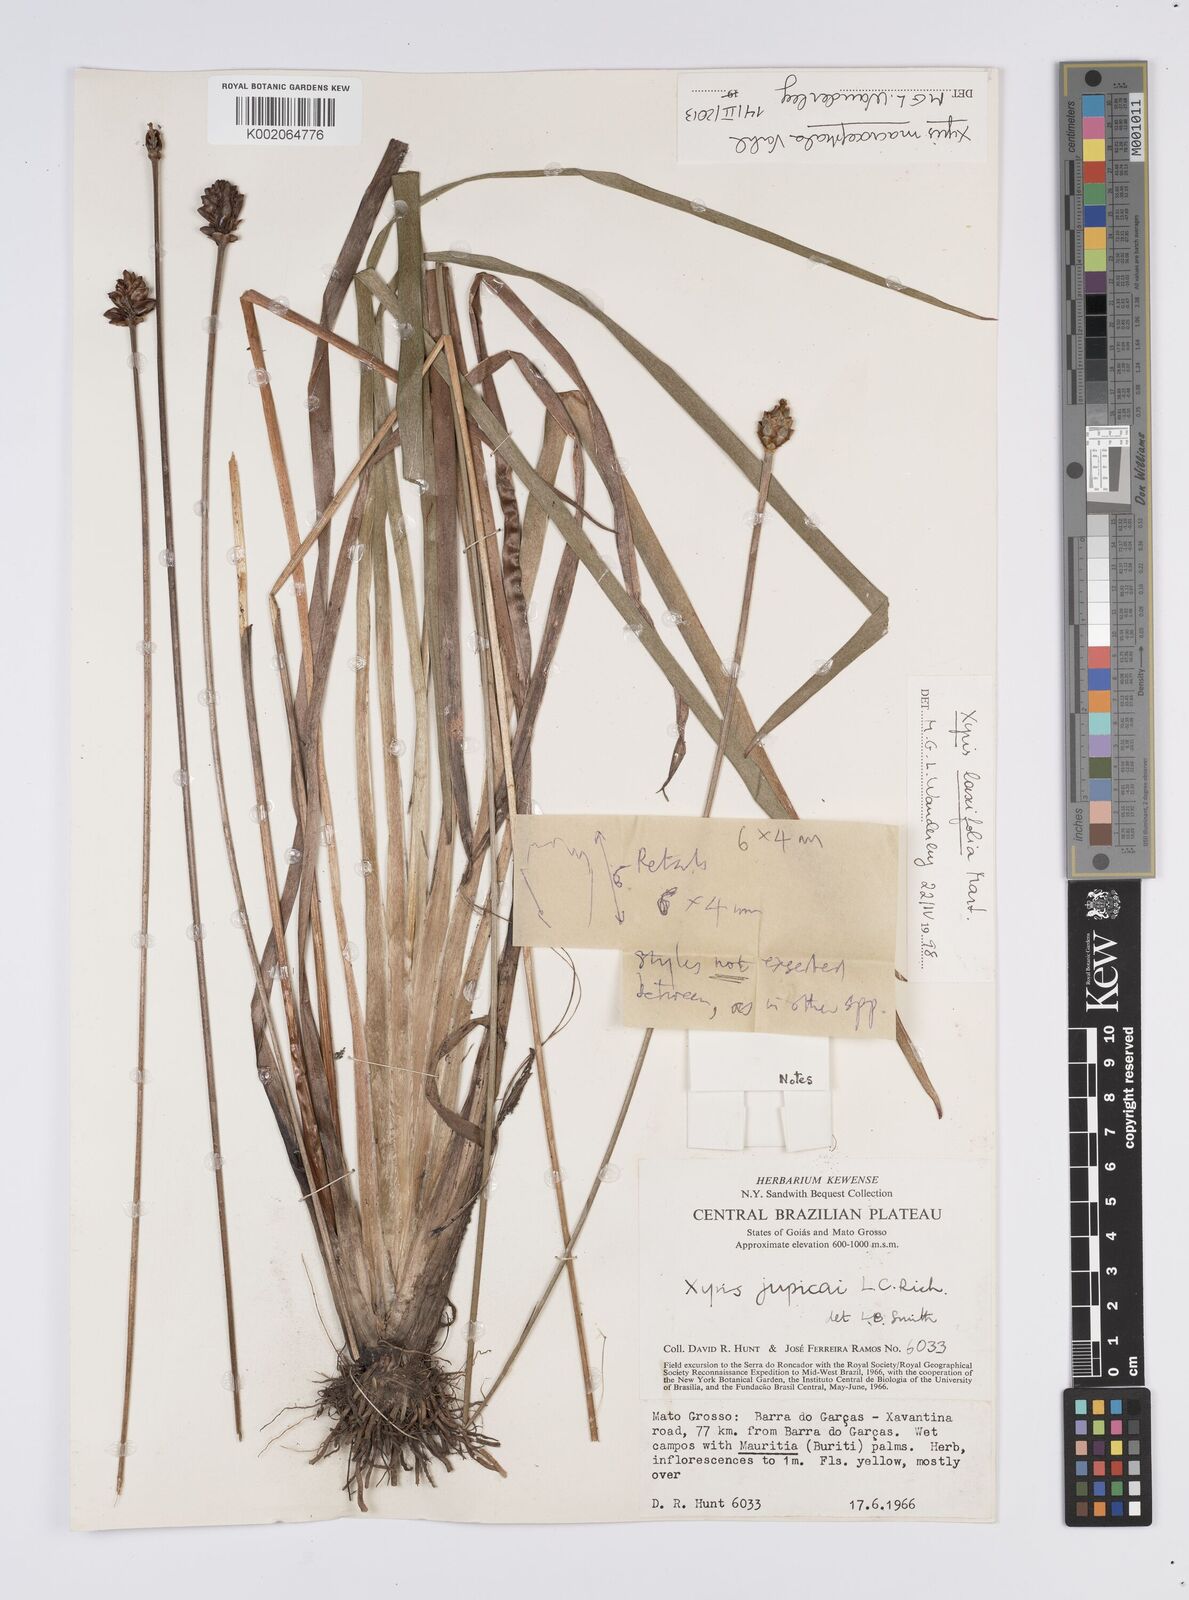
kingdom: Plantae
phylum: Tracheophyta
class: Liliopsida
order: Poales
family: Xyridaceae
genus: Xyris
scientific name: Xyris laxifolia
